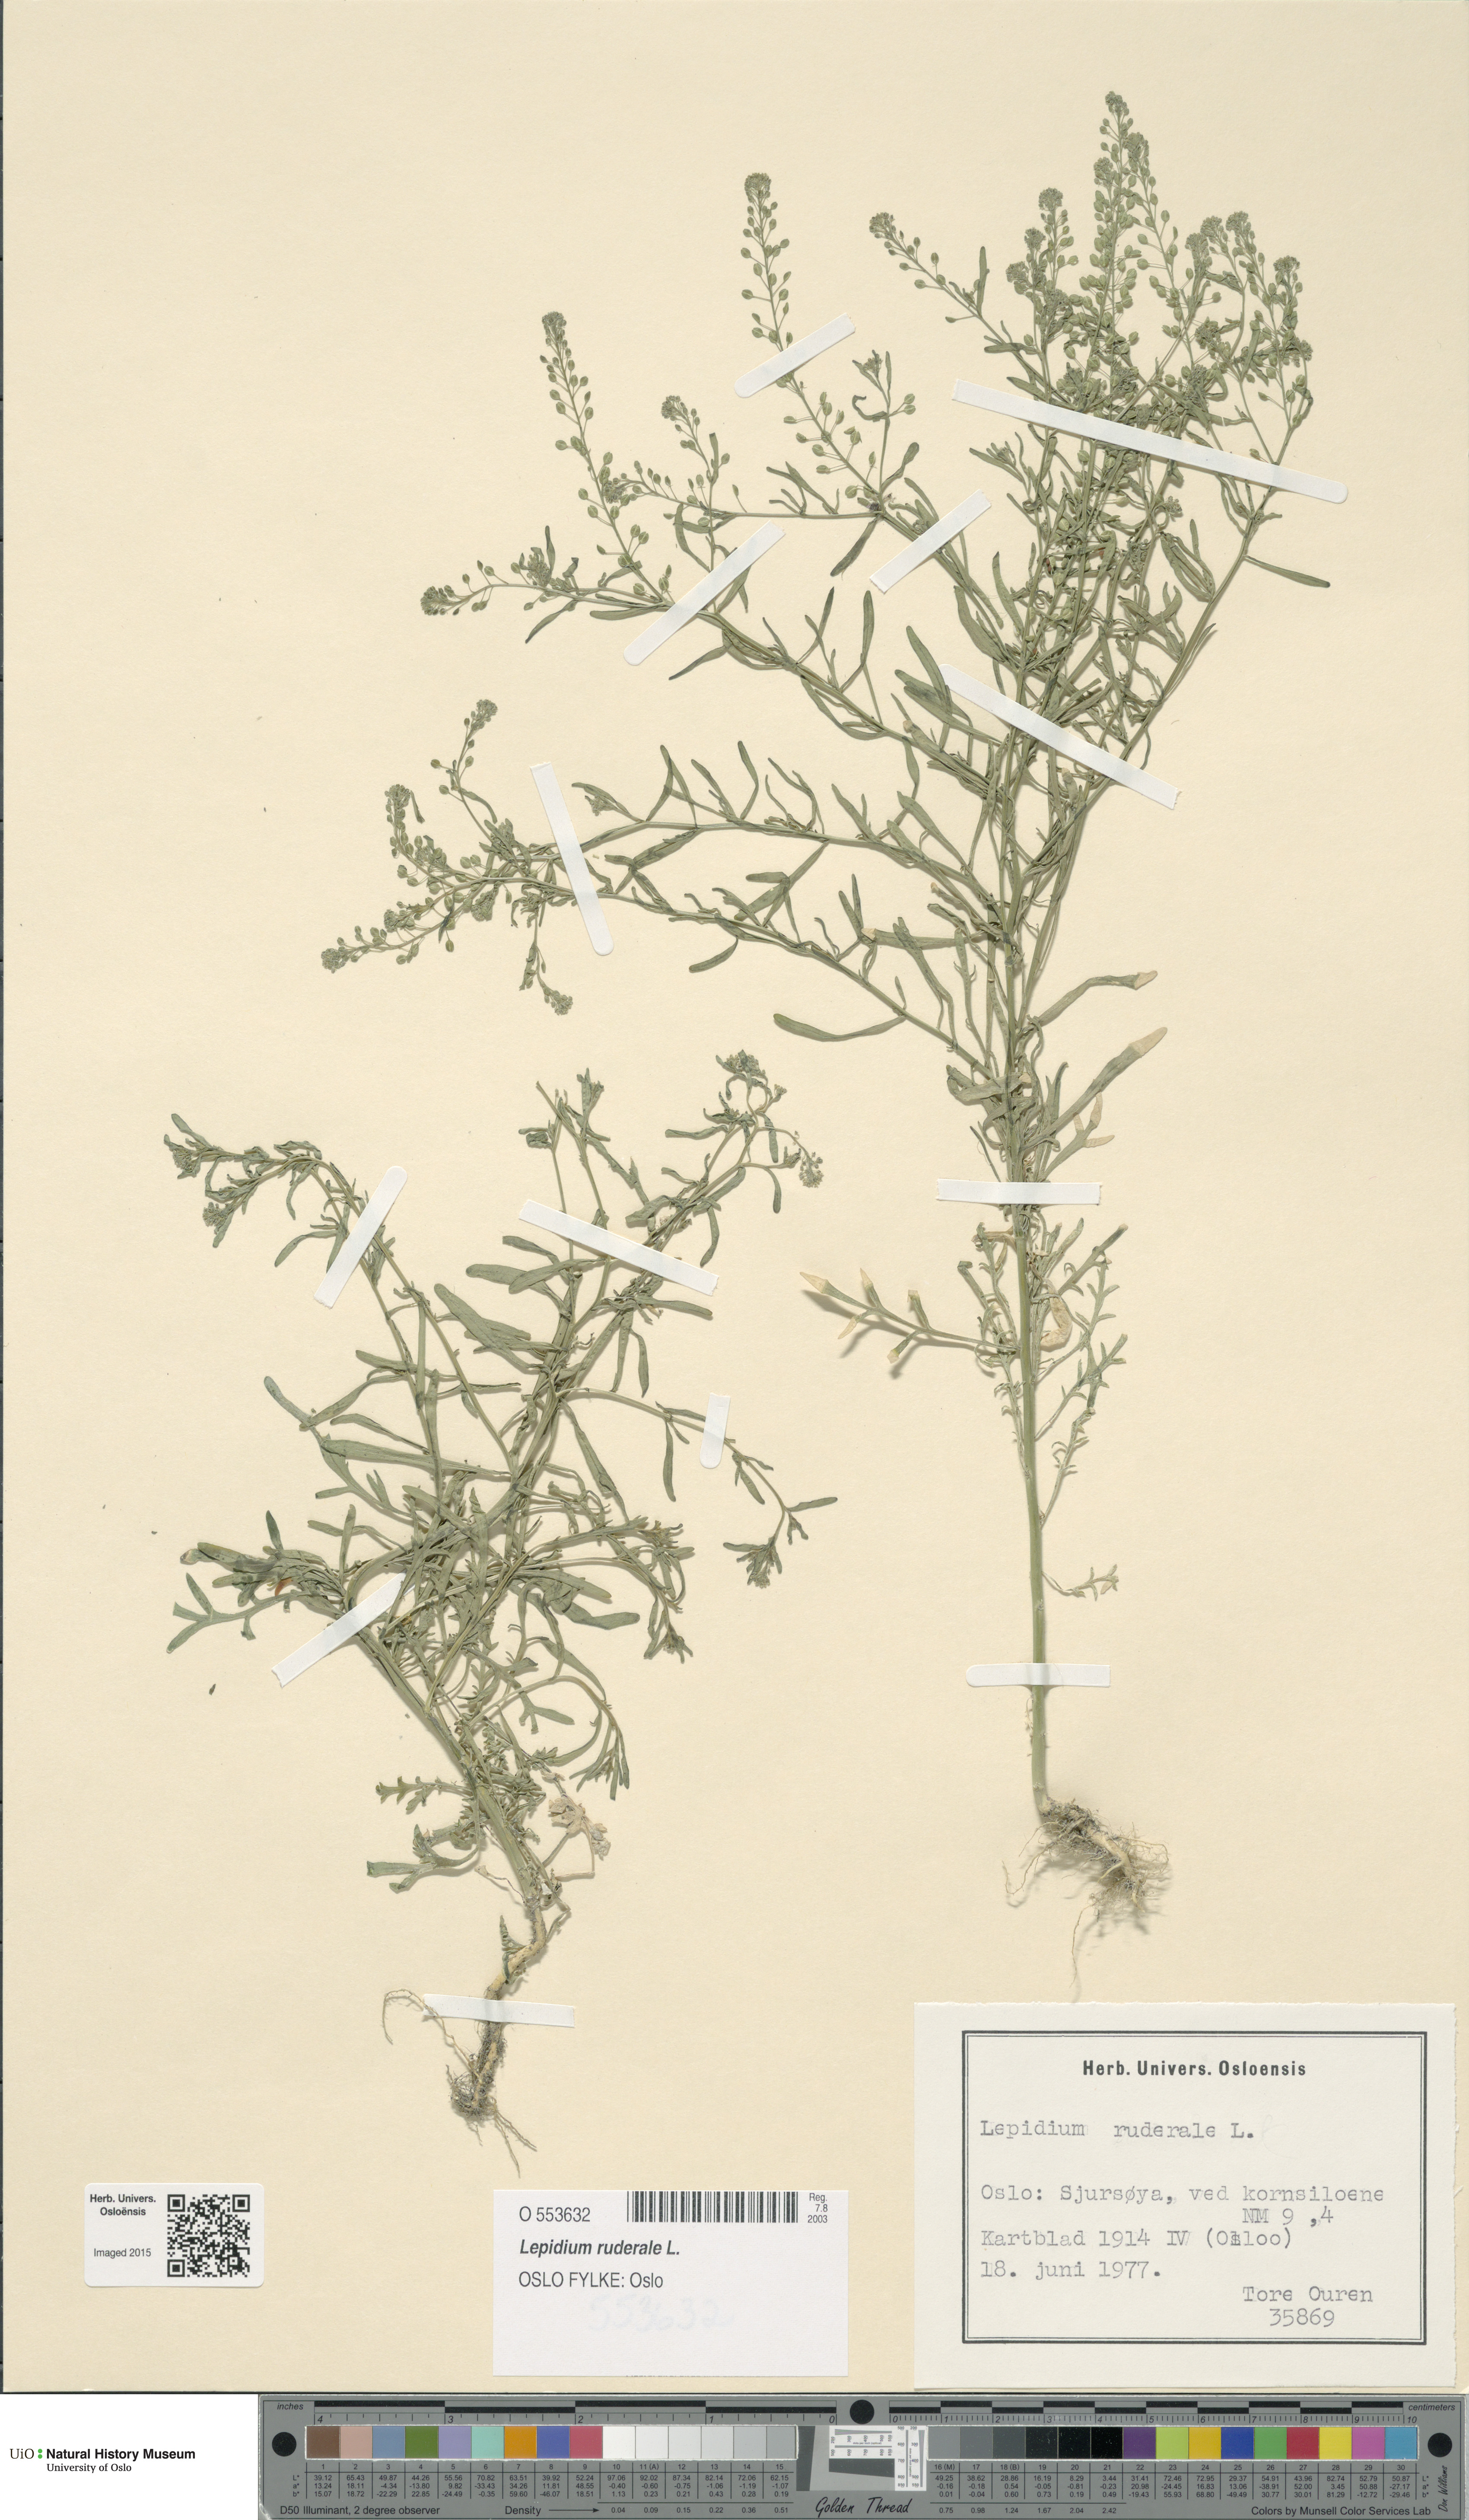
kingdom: Plantae
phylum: Tracheophyta
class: Magnoliopsida
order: Brassicales
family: Brassicaceae
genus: Lepidium
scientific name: Lepidium ruderale
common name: Narrow-leaved pepperwort
